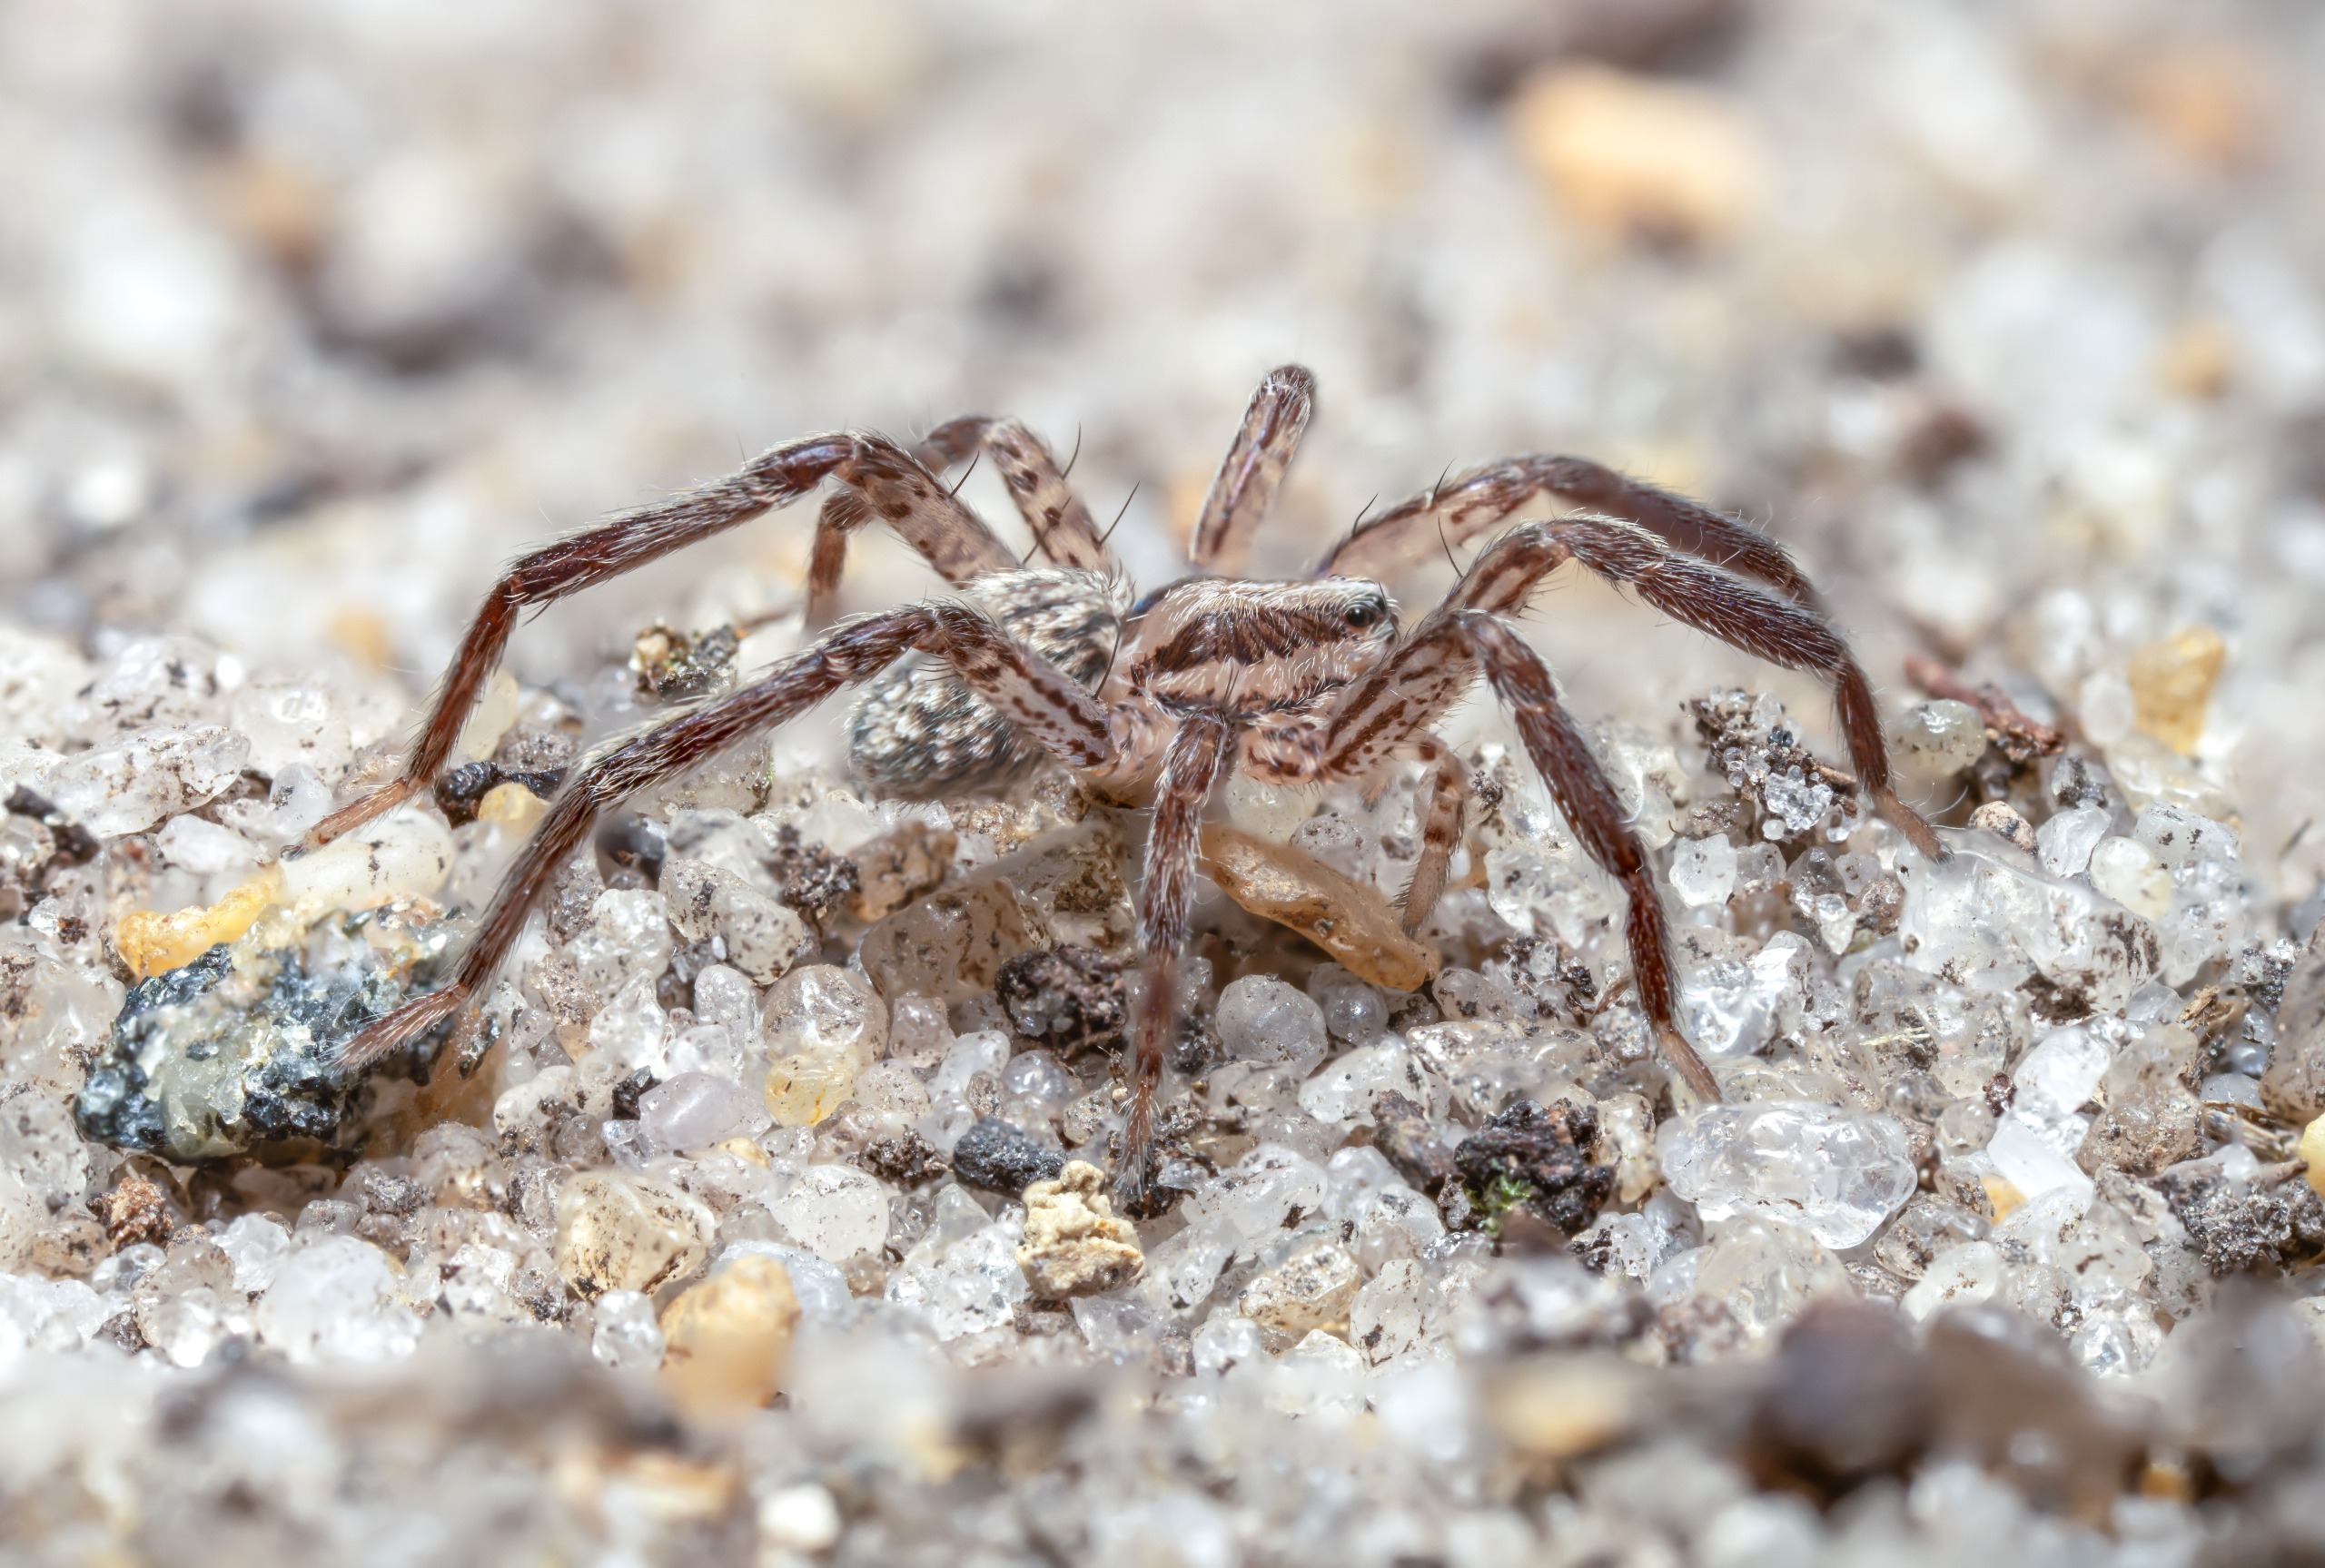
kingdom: Animalia
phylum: Arthropoda
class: Arachnida
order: Araneae
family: Miturgidae
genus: Zora
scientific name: Zora silvestris
